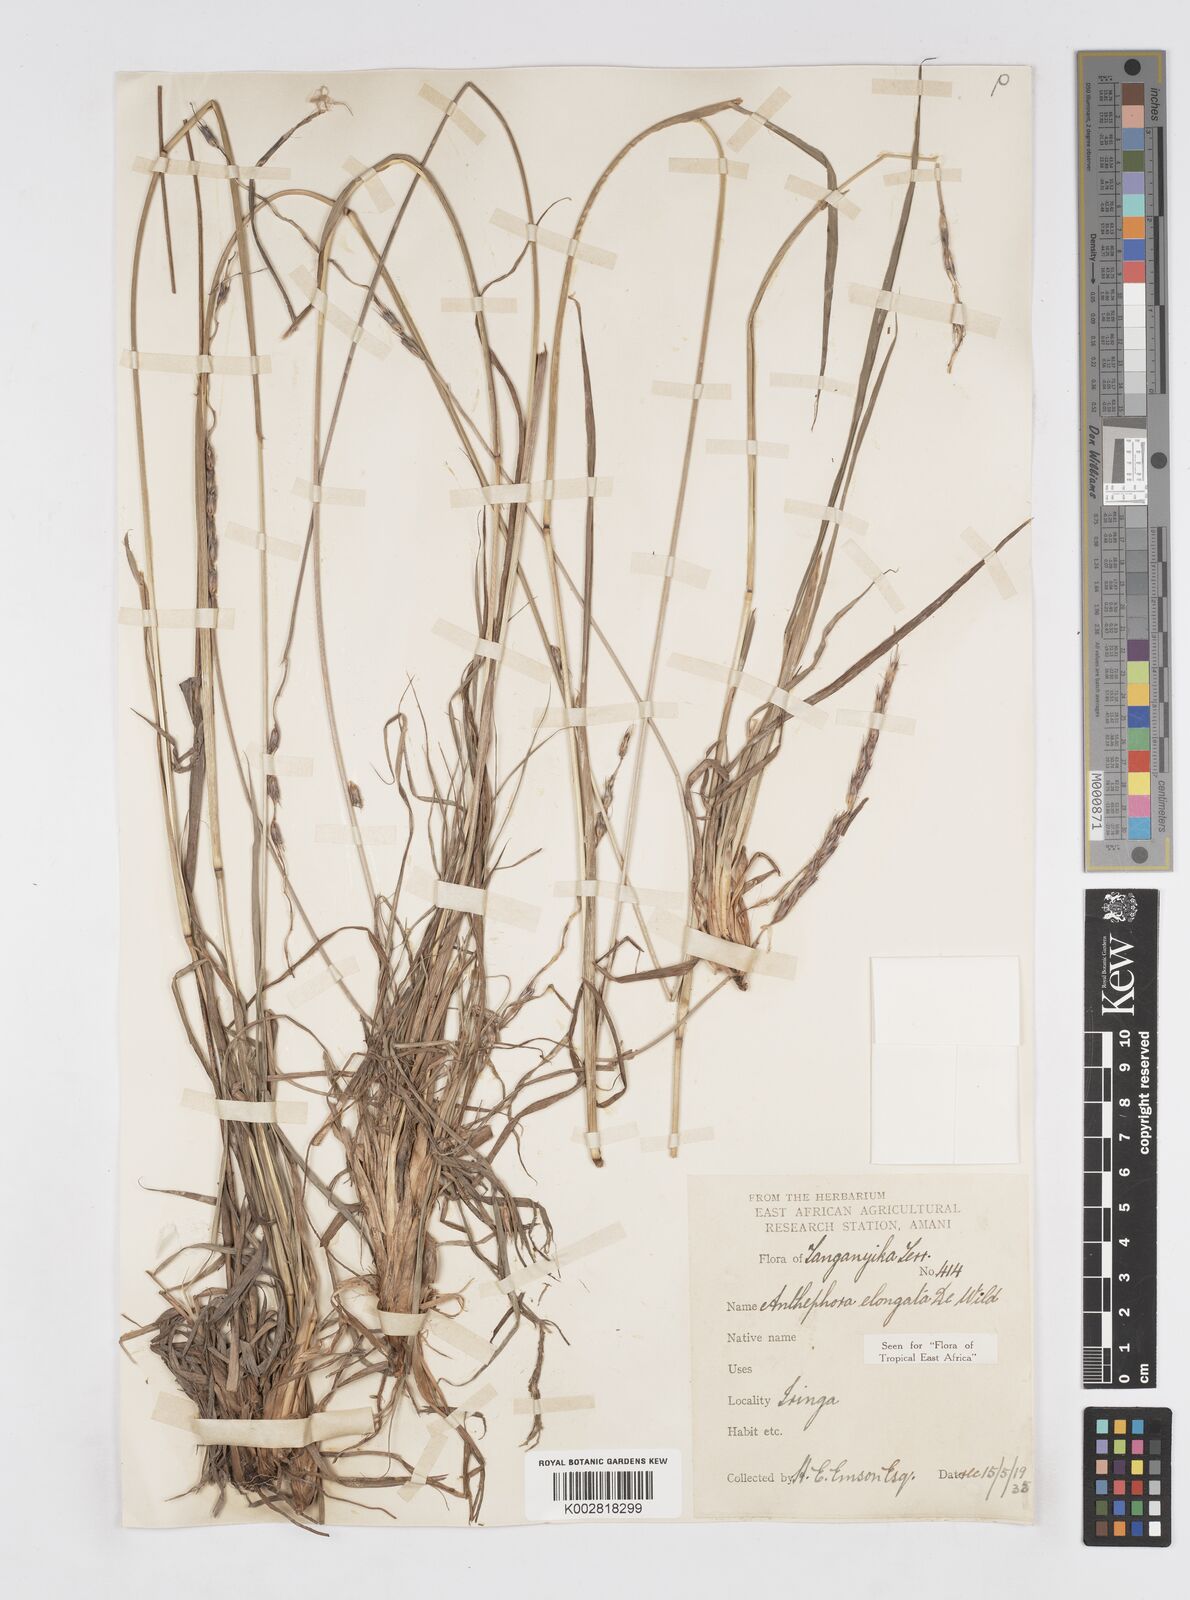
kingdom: Plantae
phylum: Tracheophyta
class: Liliopsida
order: Poales
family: Poaceae
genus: Anthephora
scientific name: Anthephora elongata
